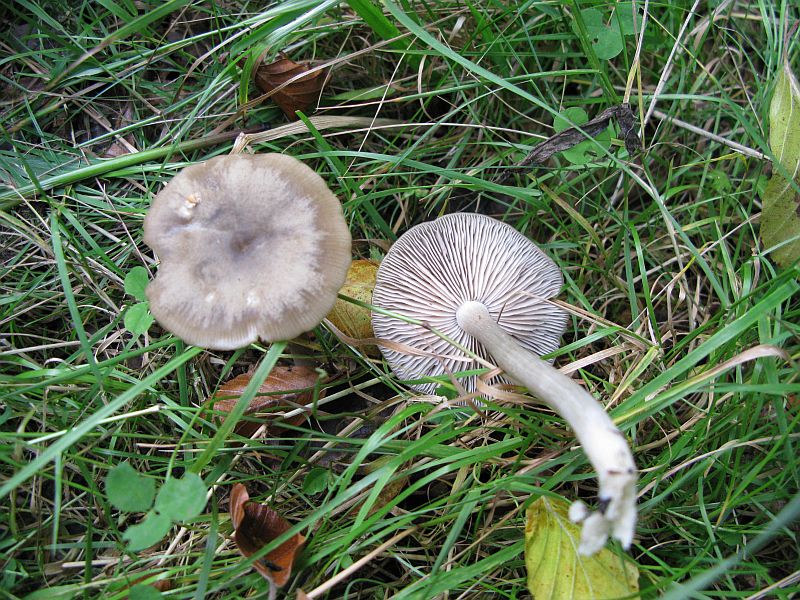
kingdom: Fungi
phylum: Basidiomycota
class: Agaricomycetes
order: Agaricales
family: Entolomataceae
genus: Entoloma
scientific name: Entoloma rhodopolium
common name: skov-rødblad
